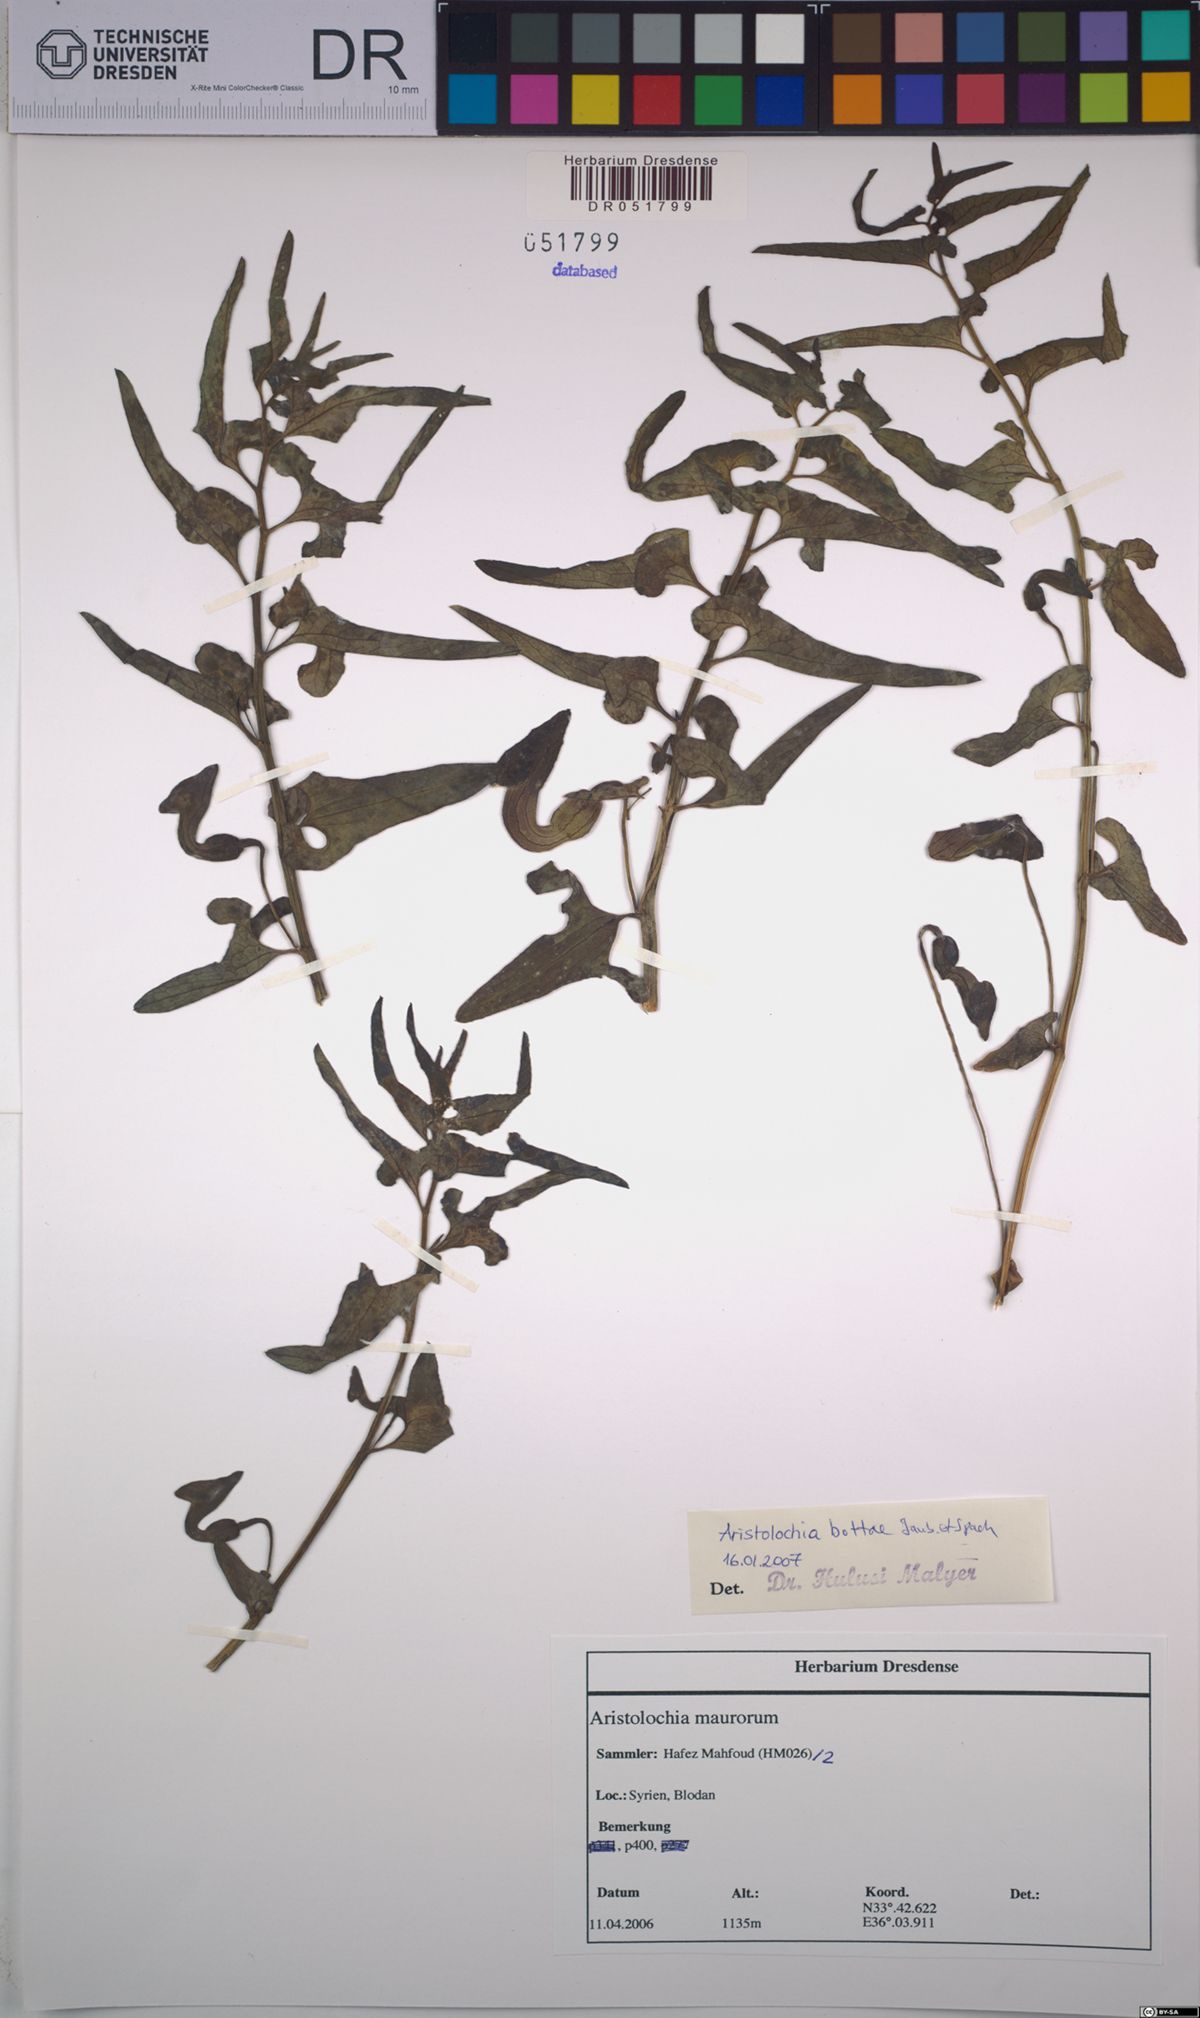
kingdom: Plantae
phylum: Tracheophyta
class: Magnoliopsida
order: Piperales
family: Aristolochiaceae
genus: Aristolochia
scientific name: Aristolochia bottae
